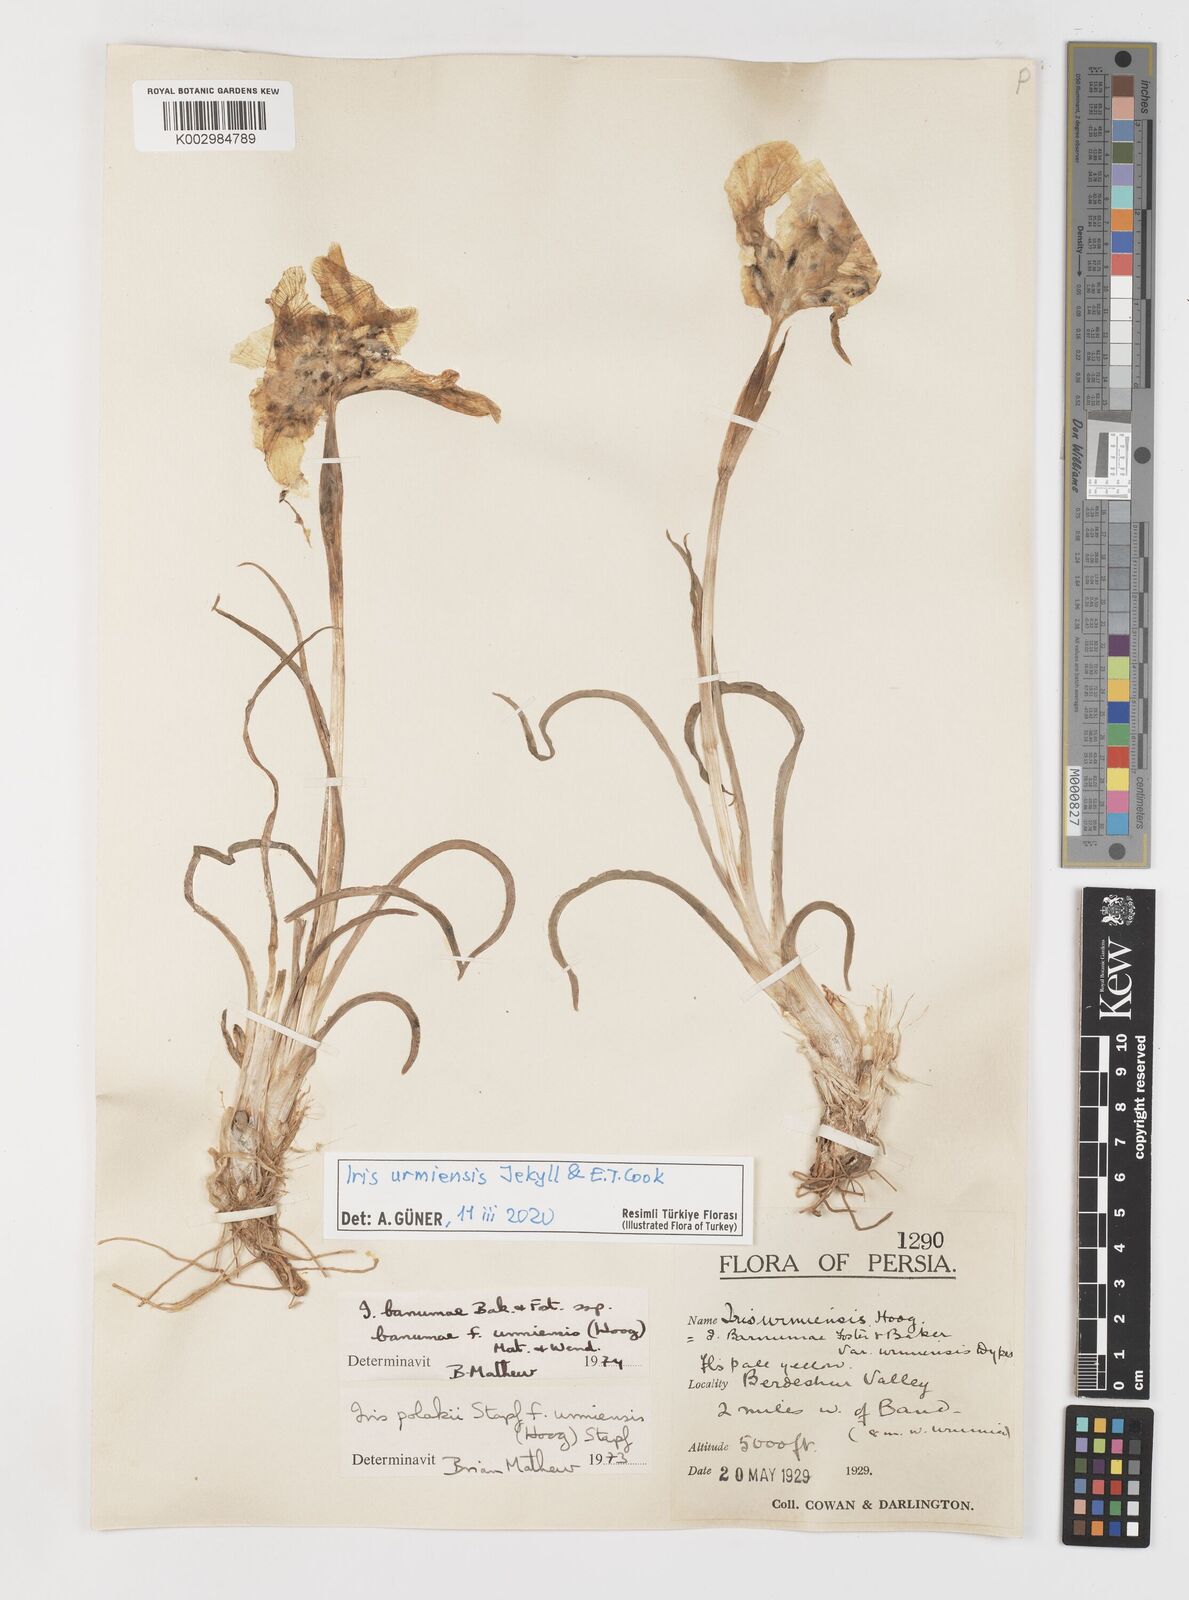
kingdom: Plantae
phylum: Tracheophyta
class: Liliopsida
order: Asparagales
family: Iridaceae
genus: Iris
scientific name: Iris urmiensis
